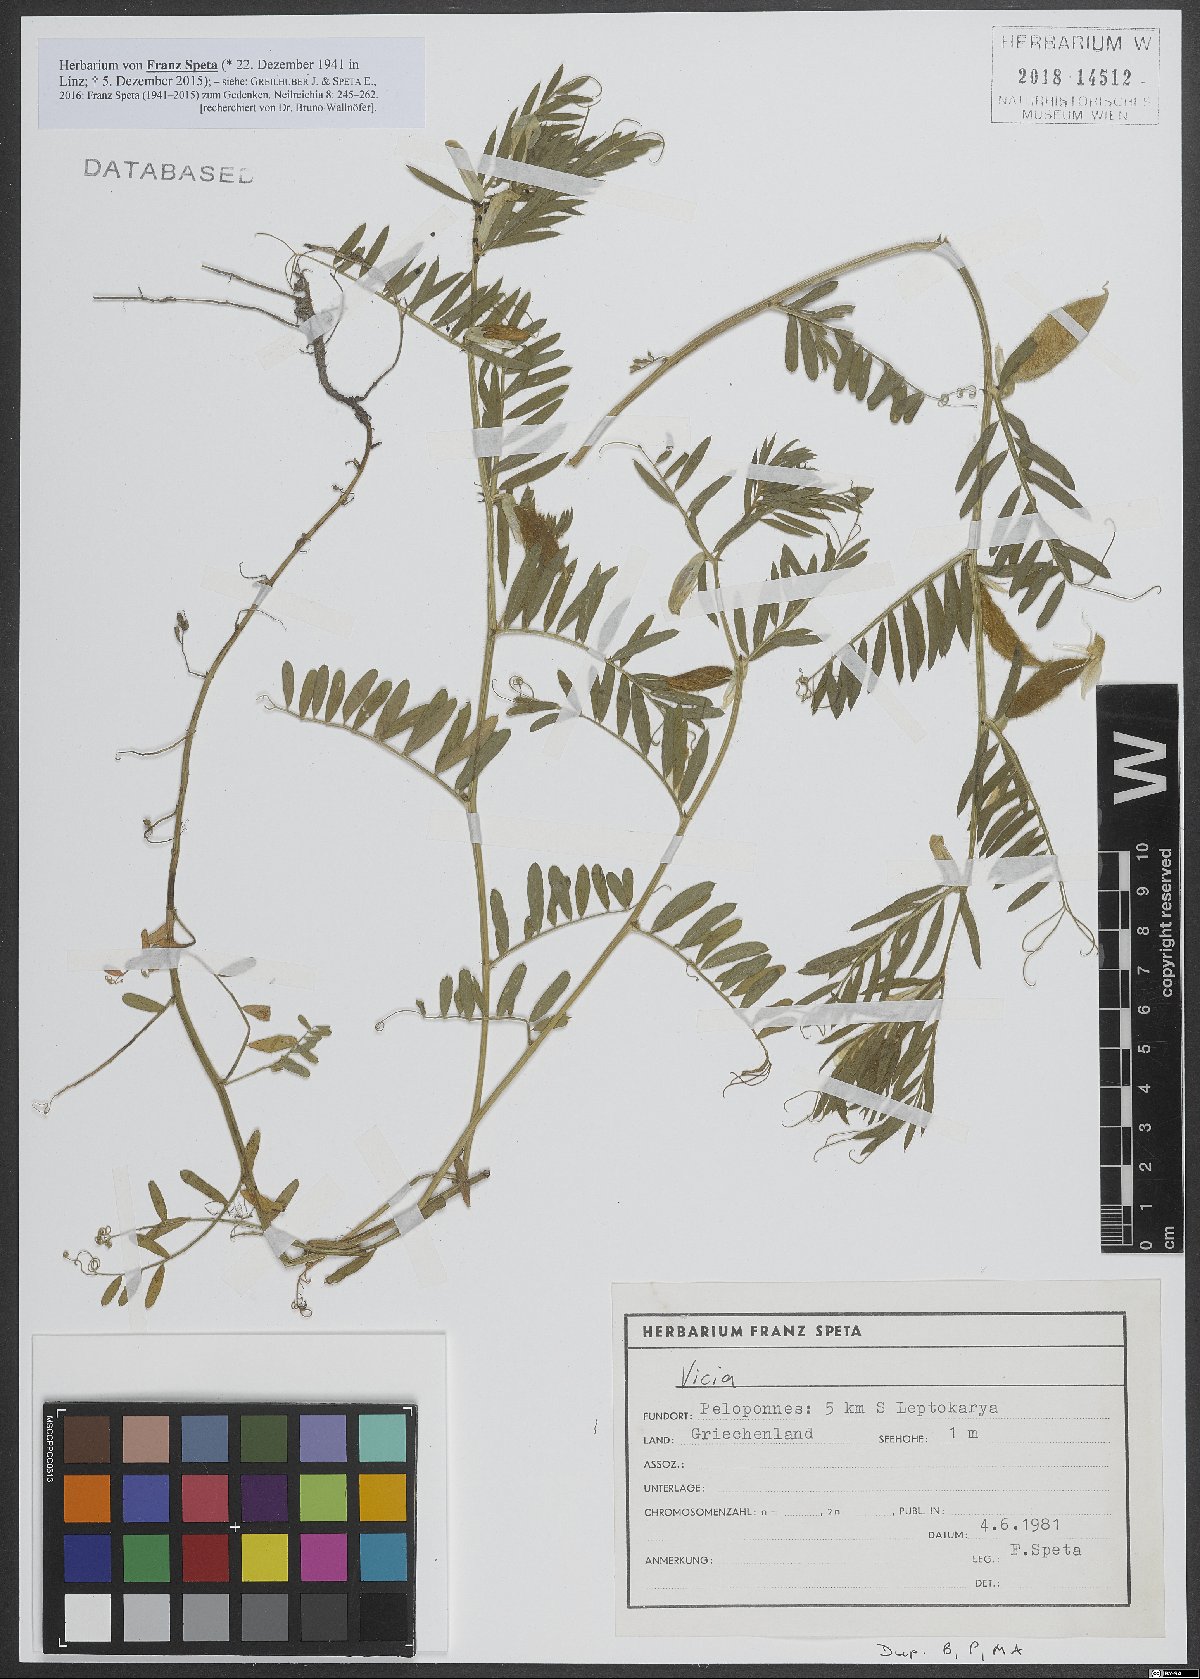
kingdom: Plantae
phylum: Tracheophyta
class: Magnoliopsida
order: Fabales
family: Fabaceae
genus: Vicia
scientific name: Vicia
